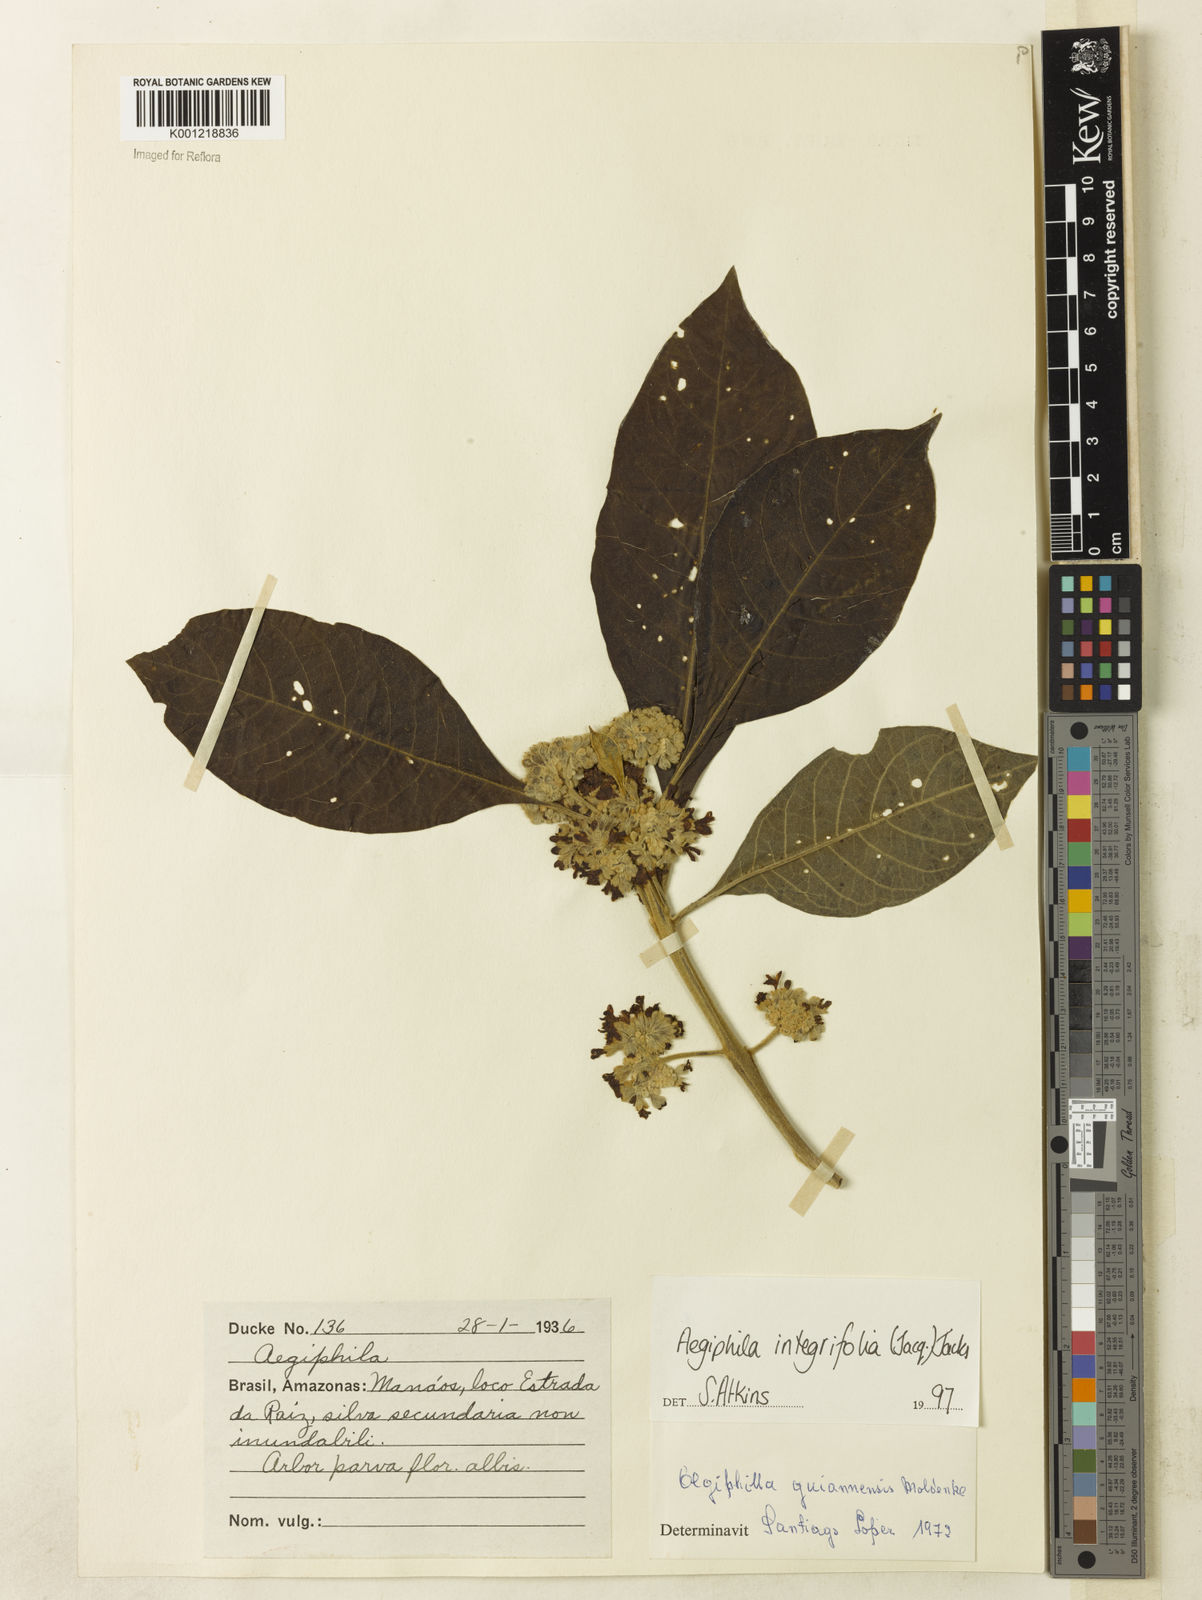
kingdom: Plantae
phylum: Tracheophyta
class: Magnoliopsida
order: Lamiales
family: Lamiaceae
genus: Aegiphila
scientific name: Aegiphila
